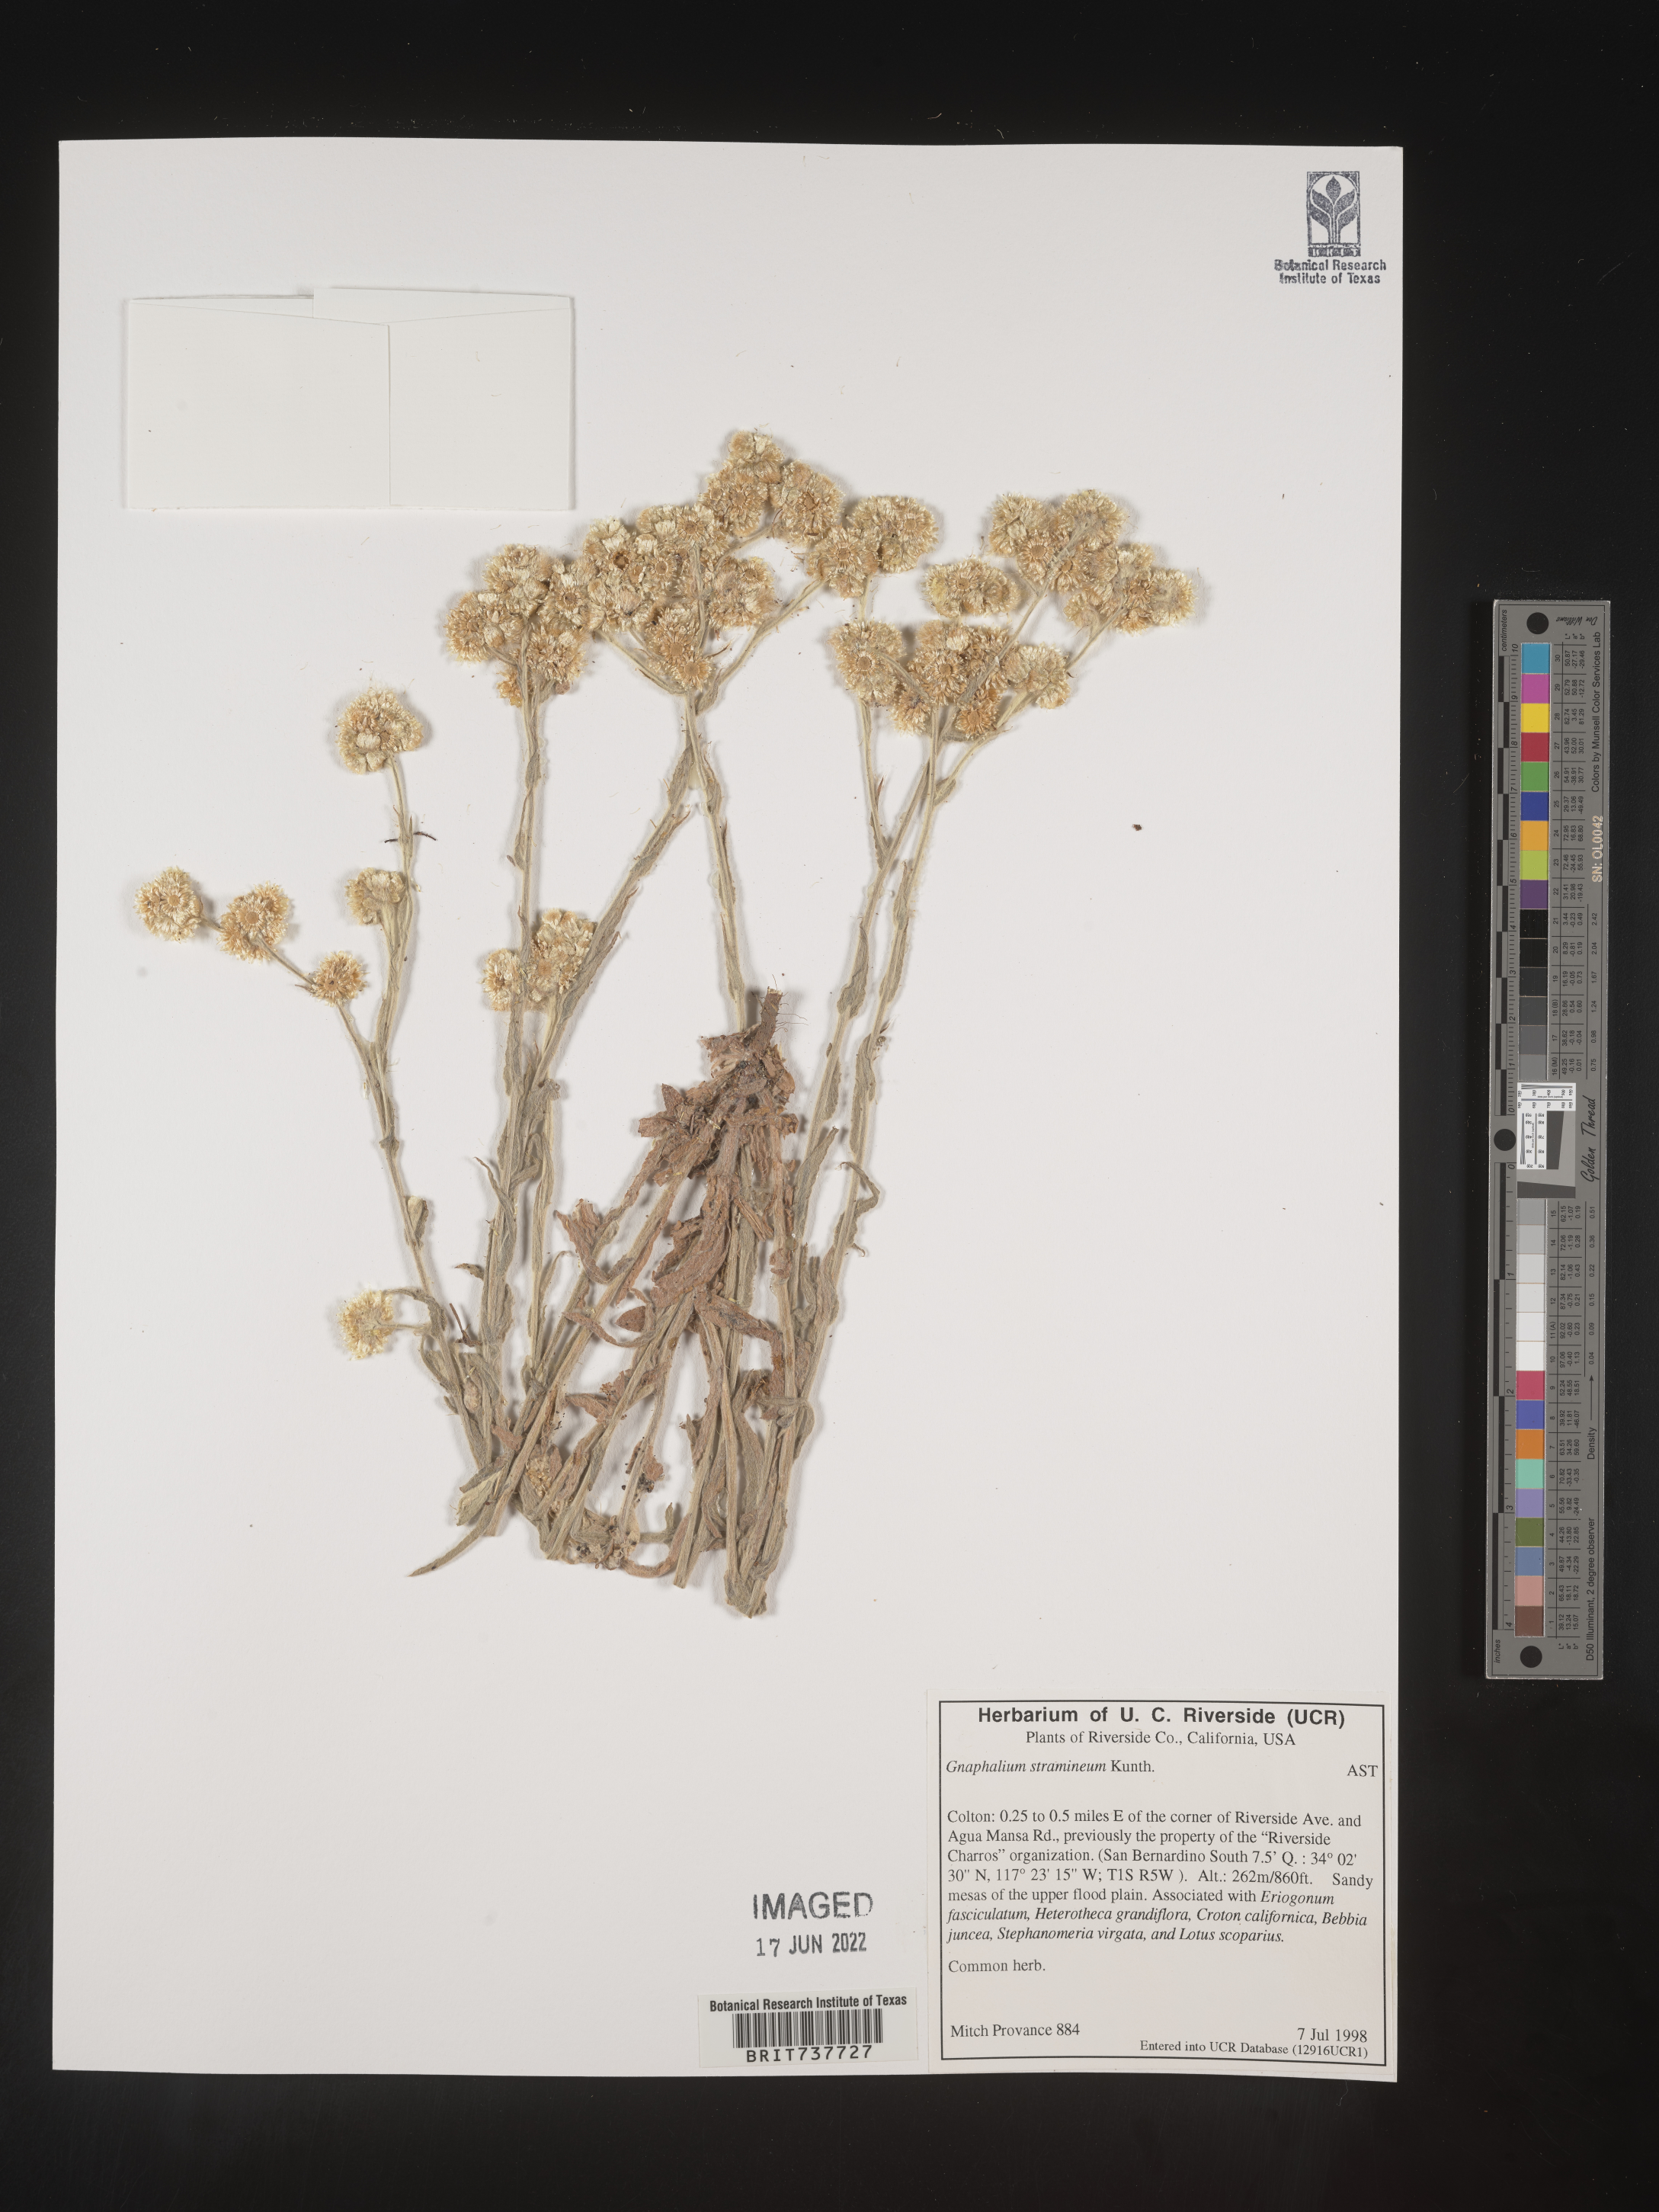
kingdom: Plantae
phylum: Tracheophyta
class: Magnoliopsida
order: Asterales
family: Asteraceae
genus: Pseudognaphalium
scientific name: Pseudognaphalium stramineum
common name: Cotton-batting-plant
